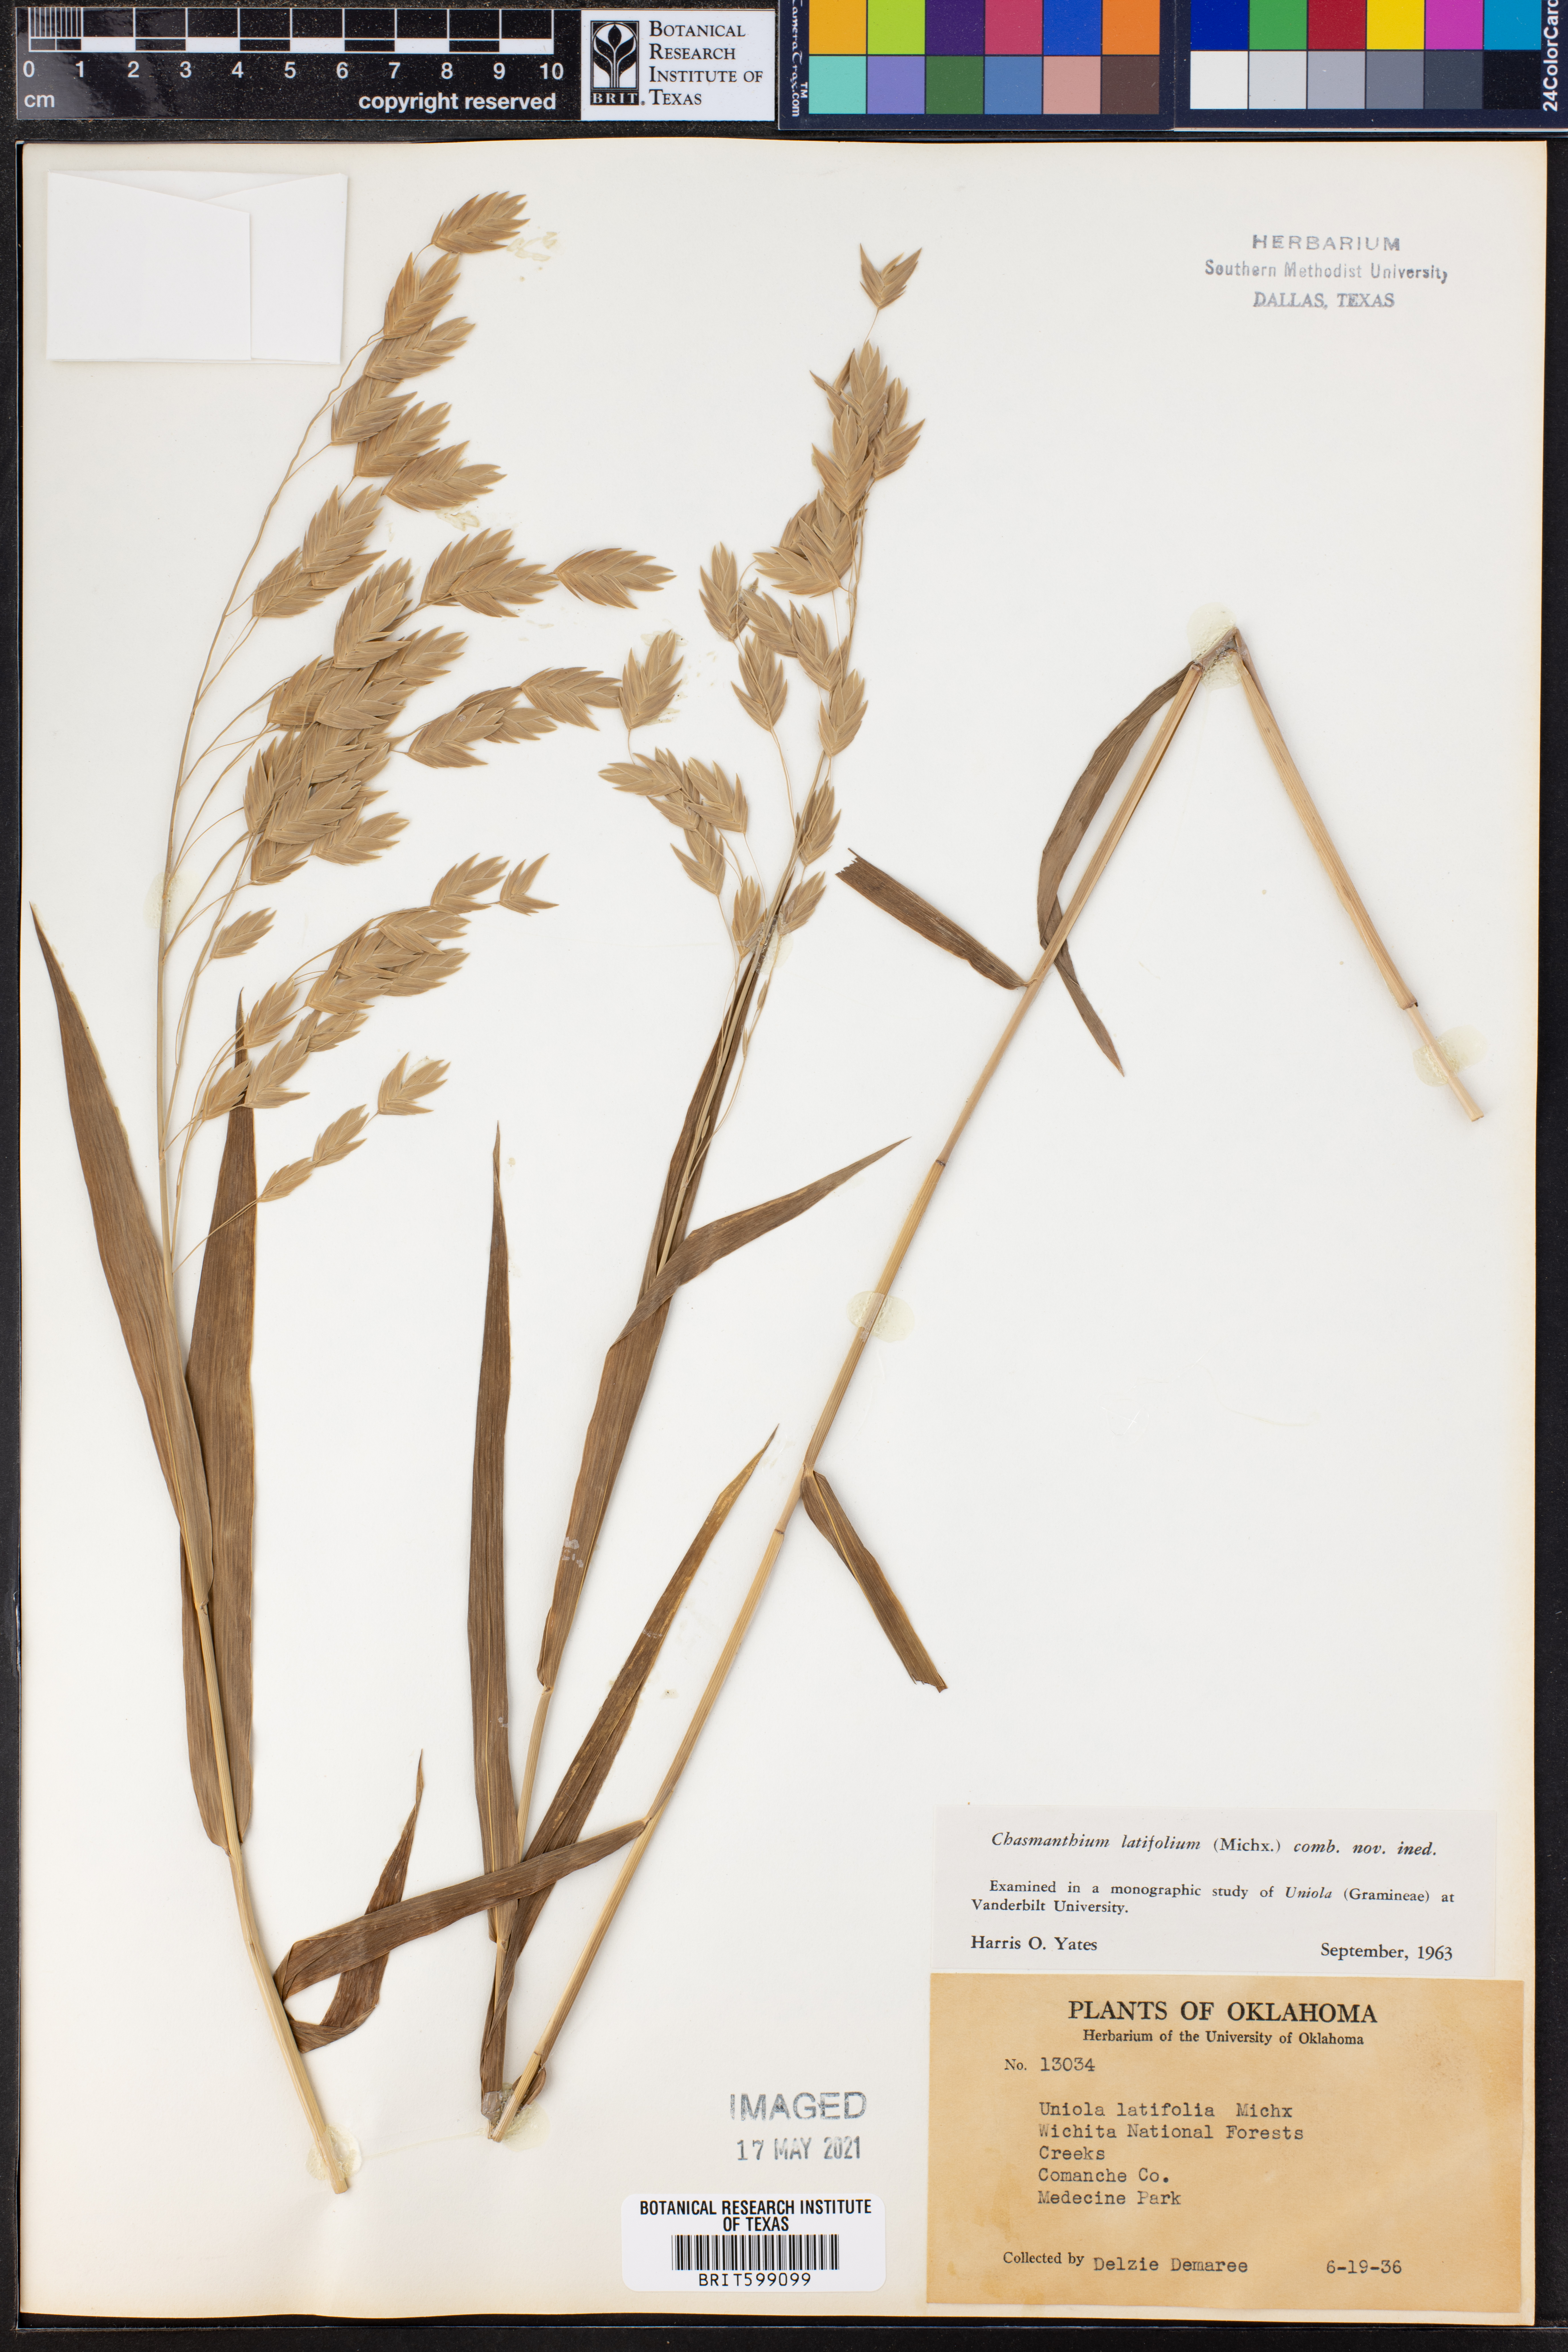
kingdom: Plantae
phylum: Tracheophyta
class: Liliopsida
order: Poales
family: Poaceae
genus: Chasmanthium
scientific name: Chasmanthium latifolium
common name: Broad-leaved chasmanthium
